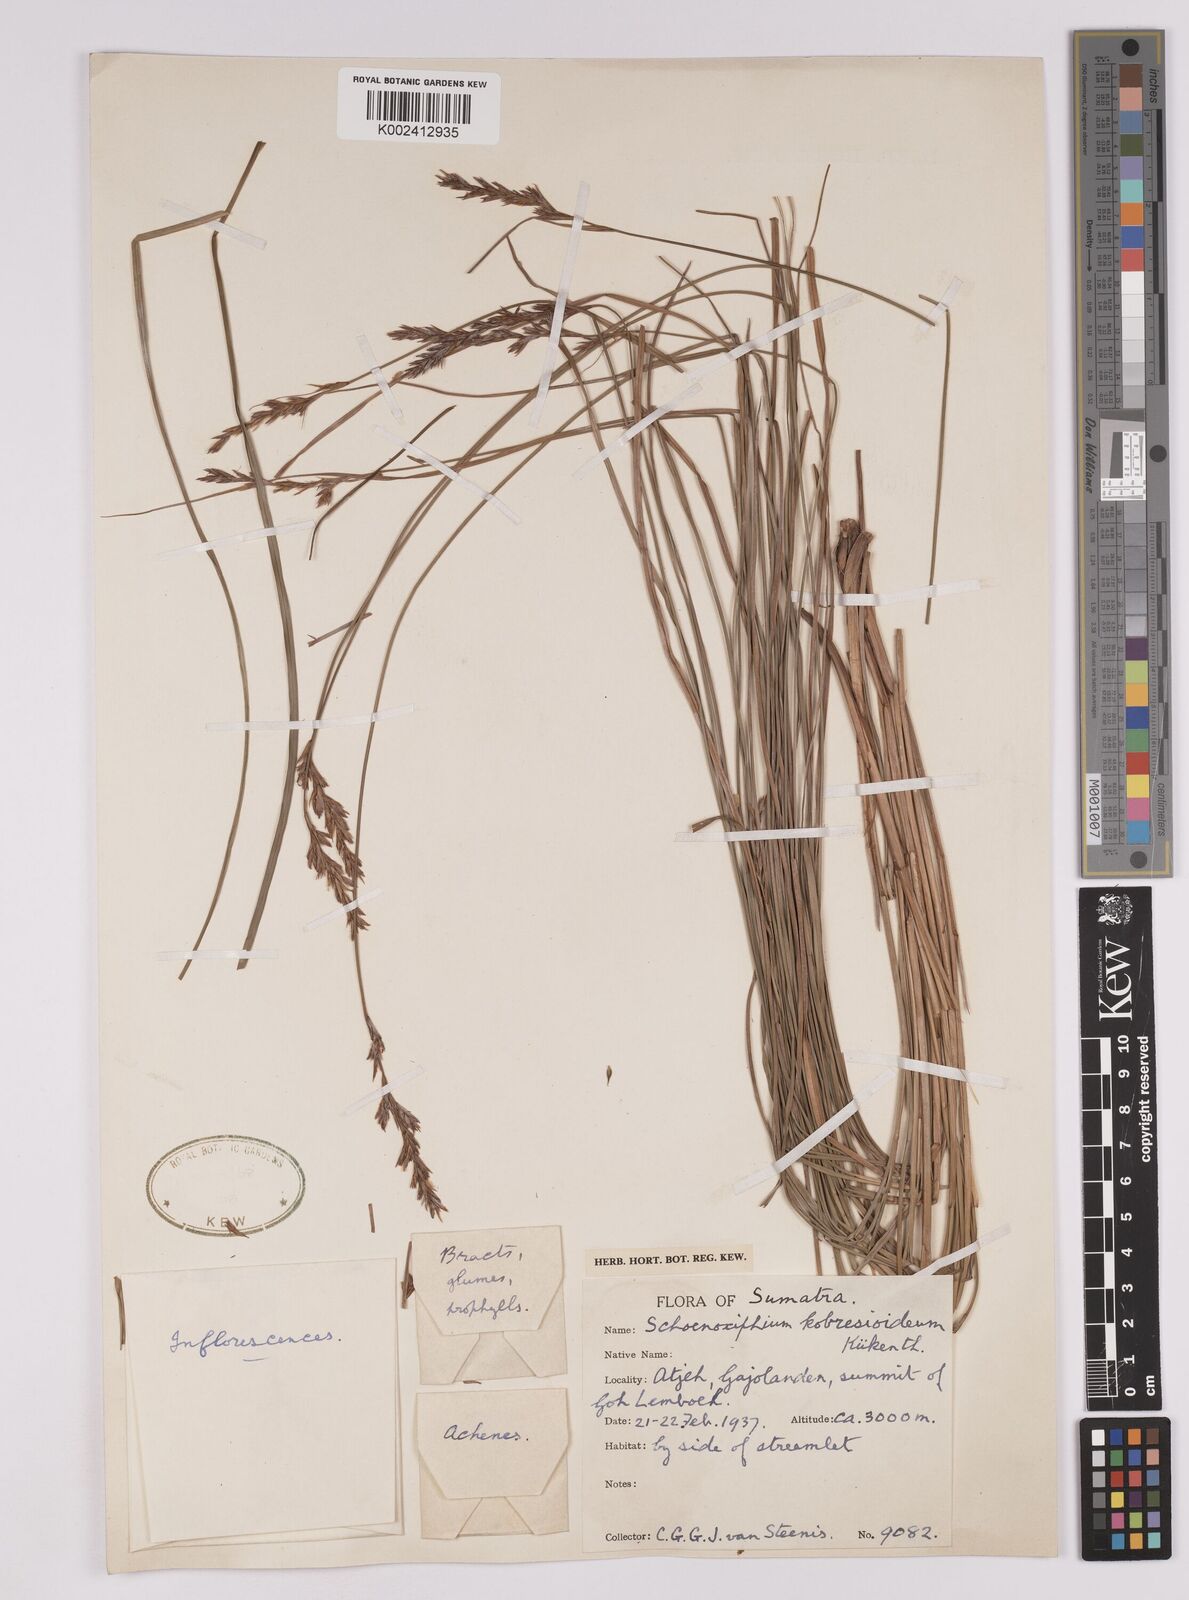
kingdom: Plantae
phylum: Tracheophyta
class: Liliopsida
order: Poales
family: Cyperaceae
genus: Carex
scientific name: Carex kobresioidea
